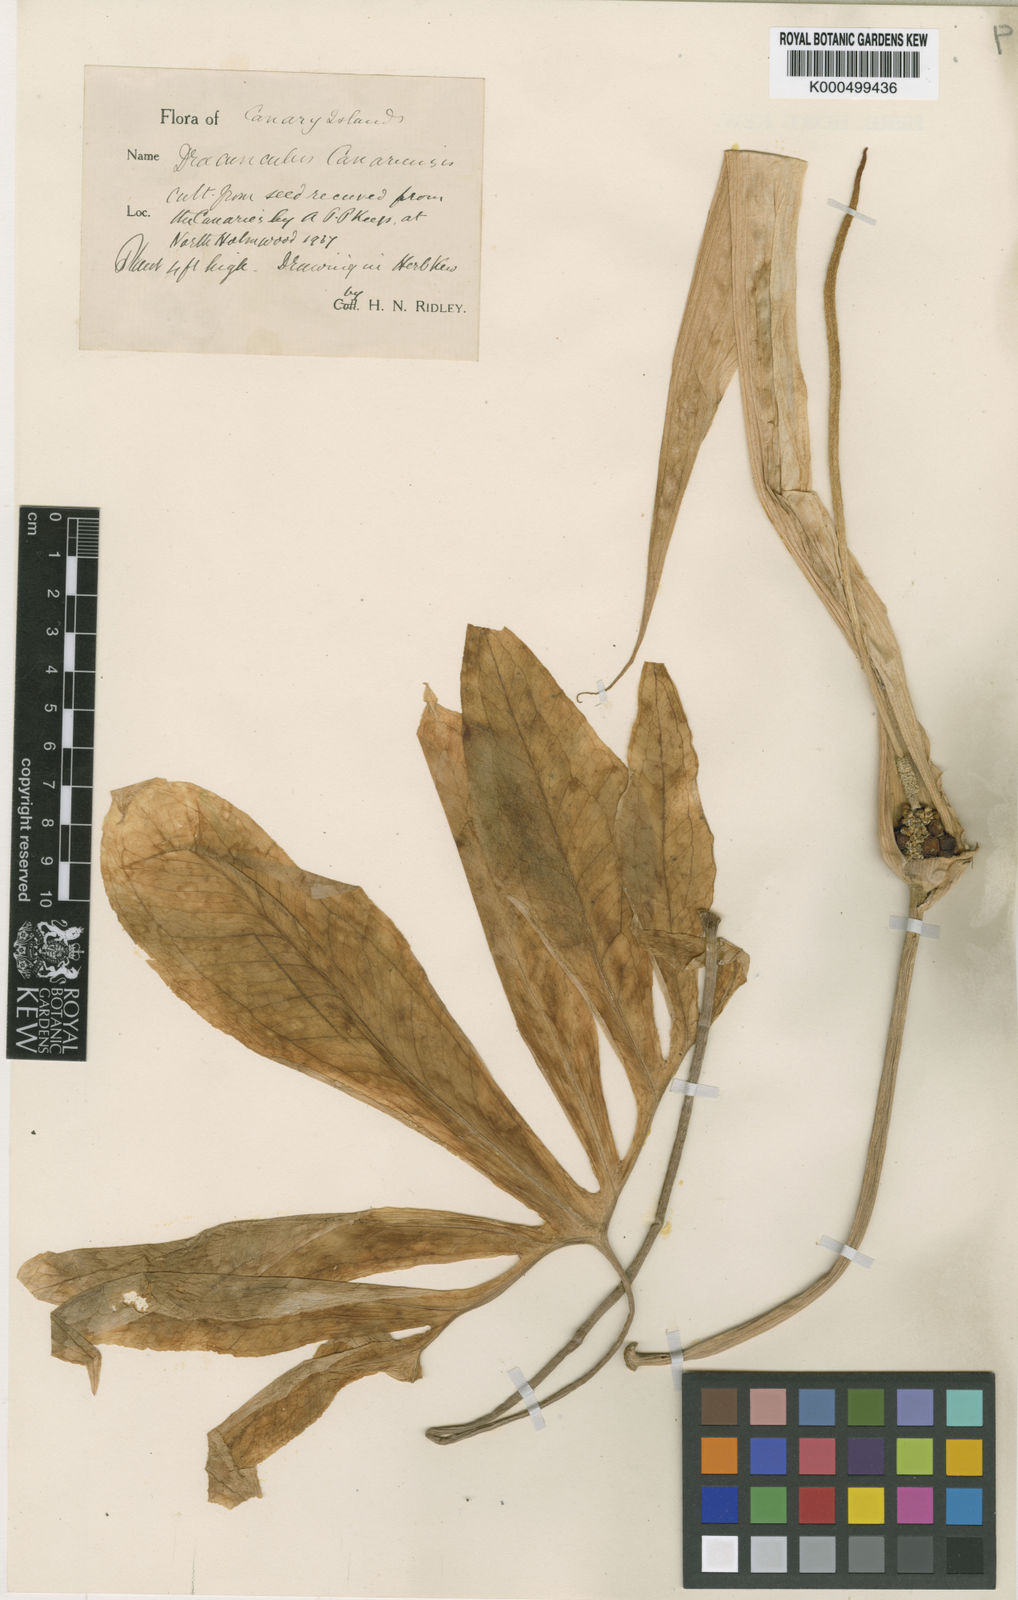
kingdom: Plantae
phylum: Tracheophyta
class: Liliopsida
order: Alismatales
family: Araceae
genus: Dracunculus
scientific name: Dracunculus canariensis
